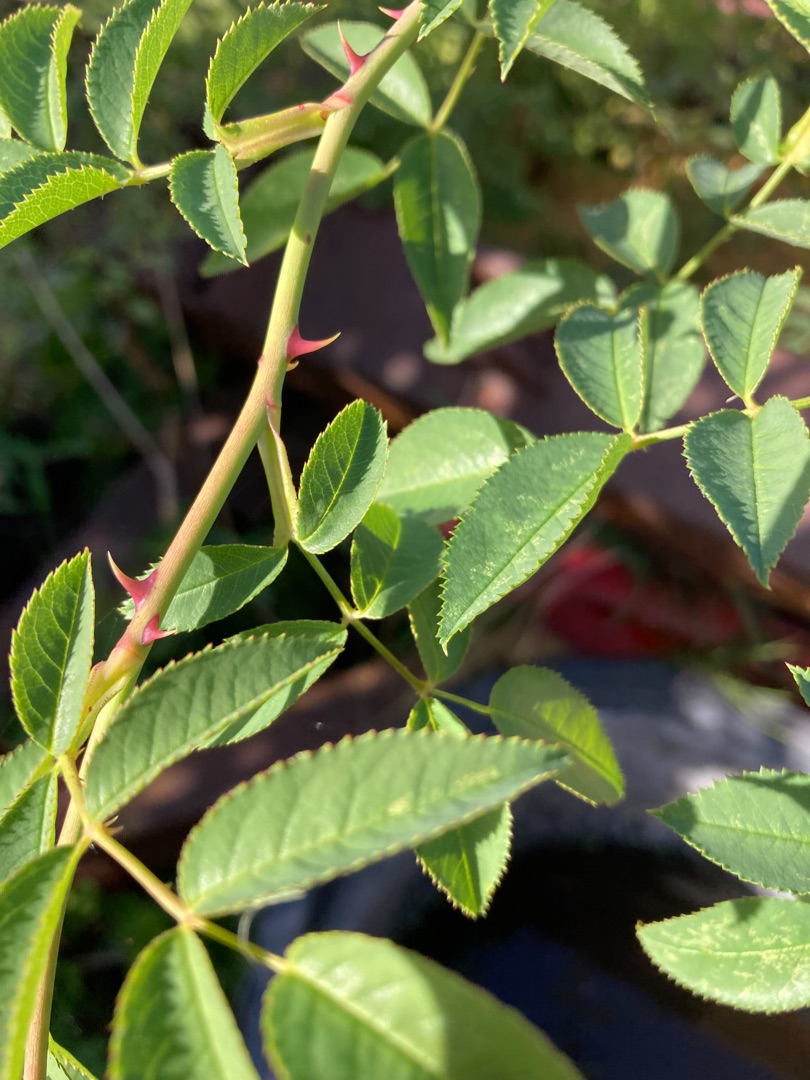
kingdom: Plantae
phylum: Tracheophyta
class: Magnoliopsida
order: Rosales
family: Rosaceae
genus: Rosa
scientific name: Rosa
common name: Roseslægten
